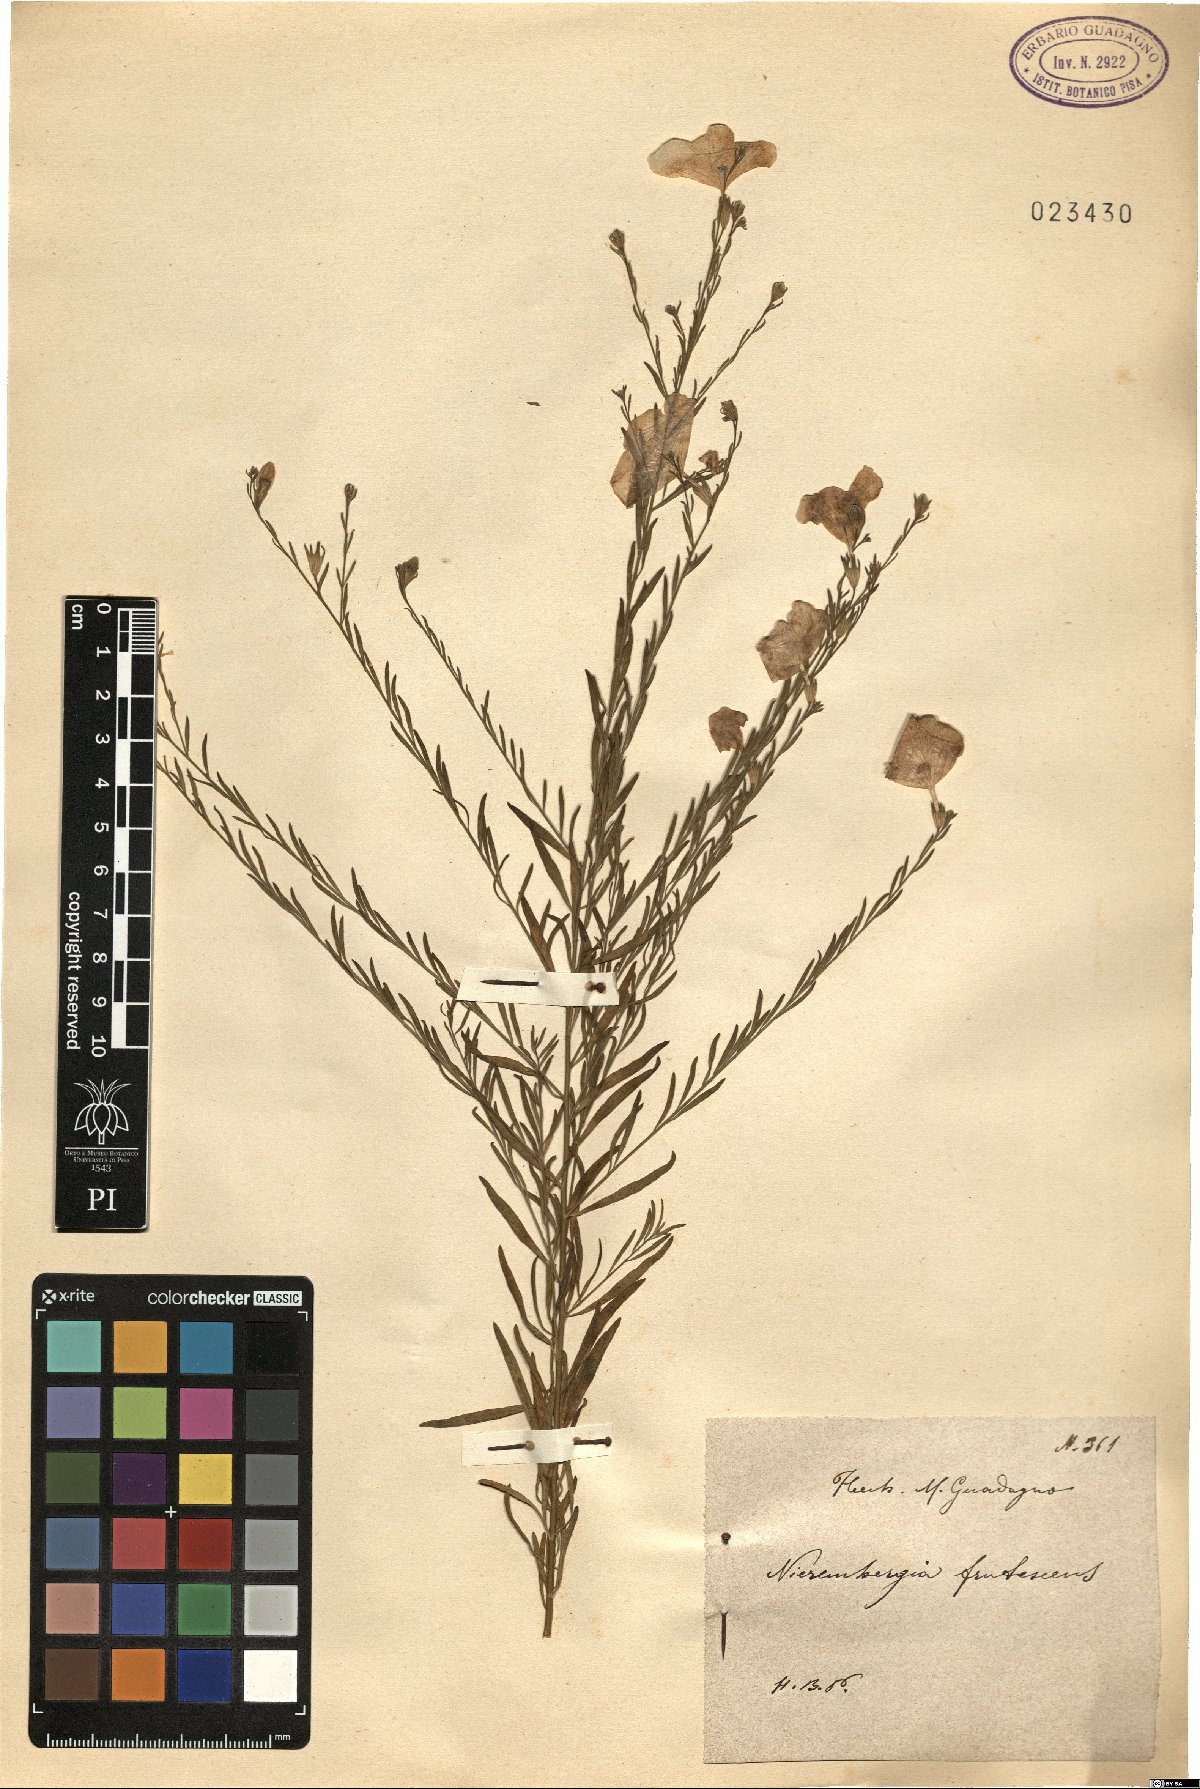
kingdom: Plantae
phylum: Tracheophyta
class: Magnoliopsida
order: Solanales
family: Solanaceae
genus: Nierembergia
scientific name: Nierembergia scoparia
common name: Broom cupflower
